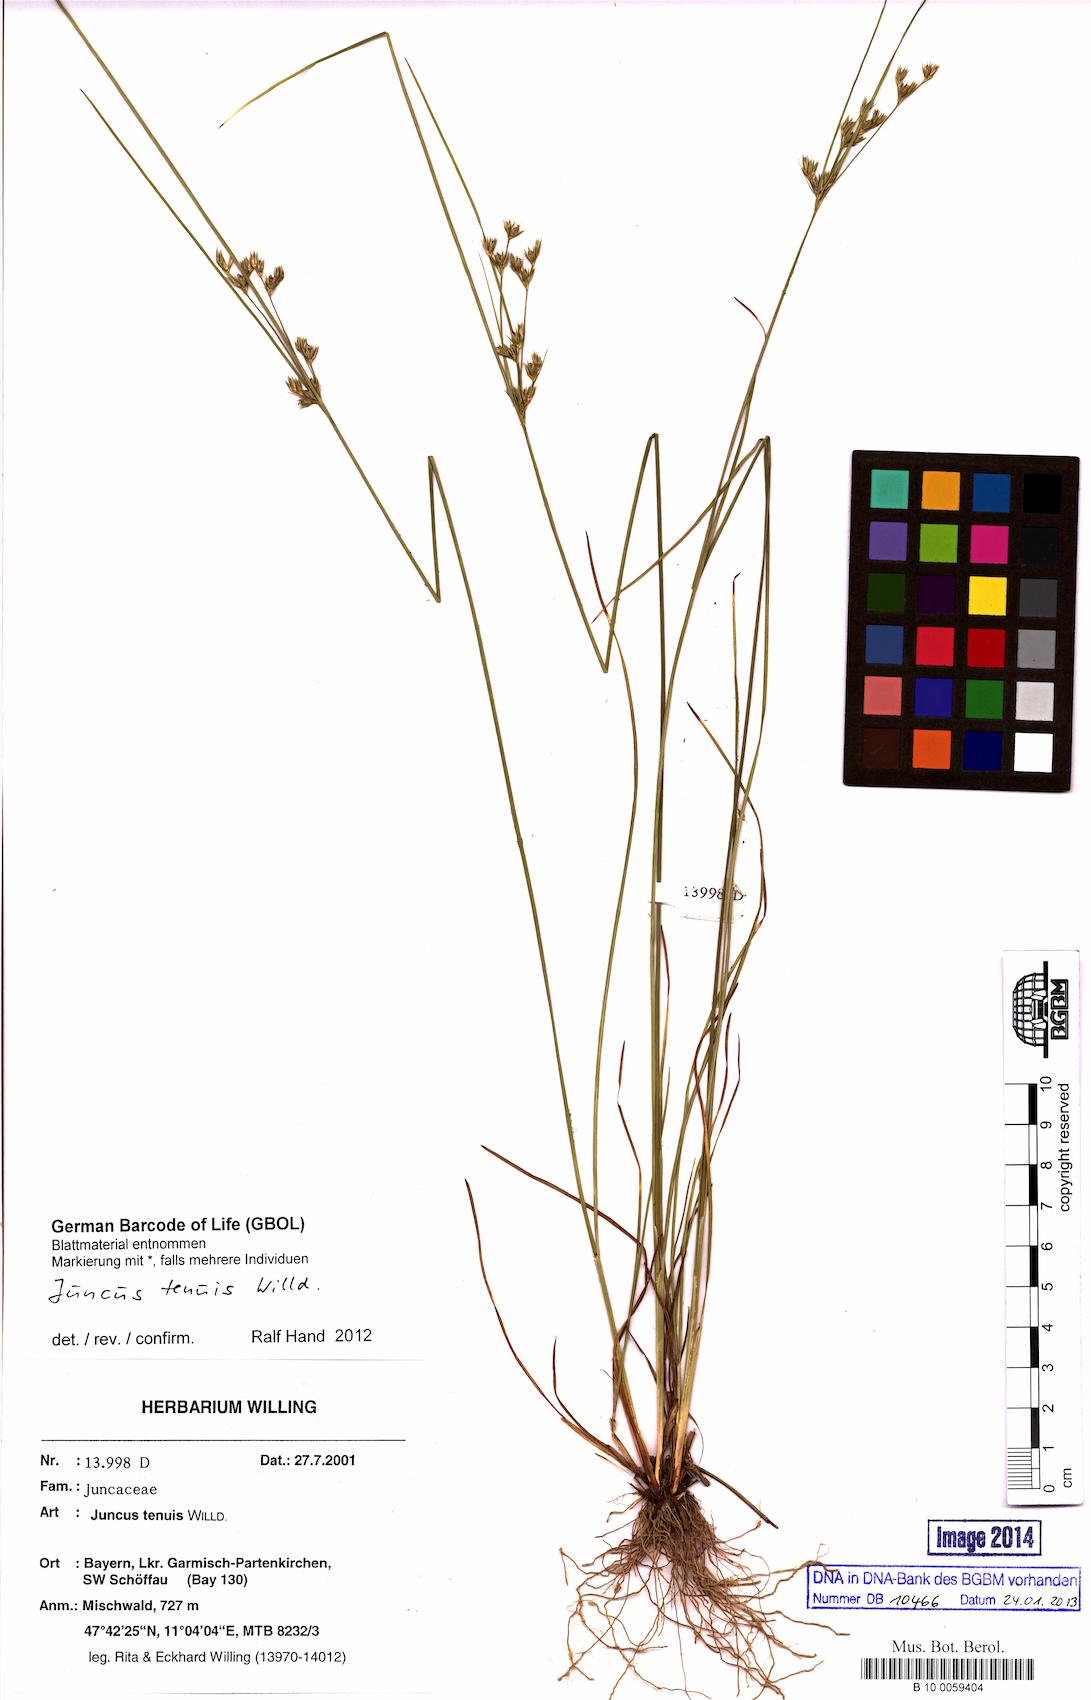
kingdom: Plantae
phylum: Tracheophyta
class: Liliopsida
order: Poales
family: Juncaceae
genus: Juncus
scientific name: Juncus tenuis
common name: Slender rush
